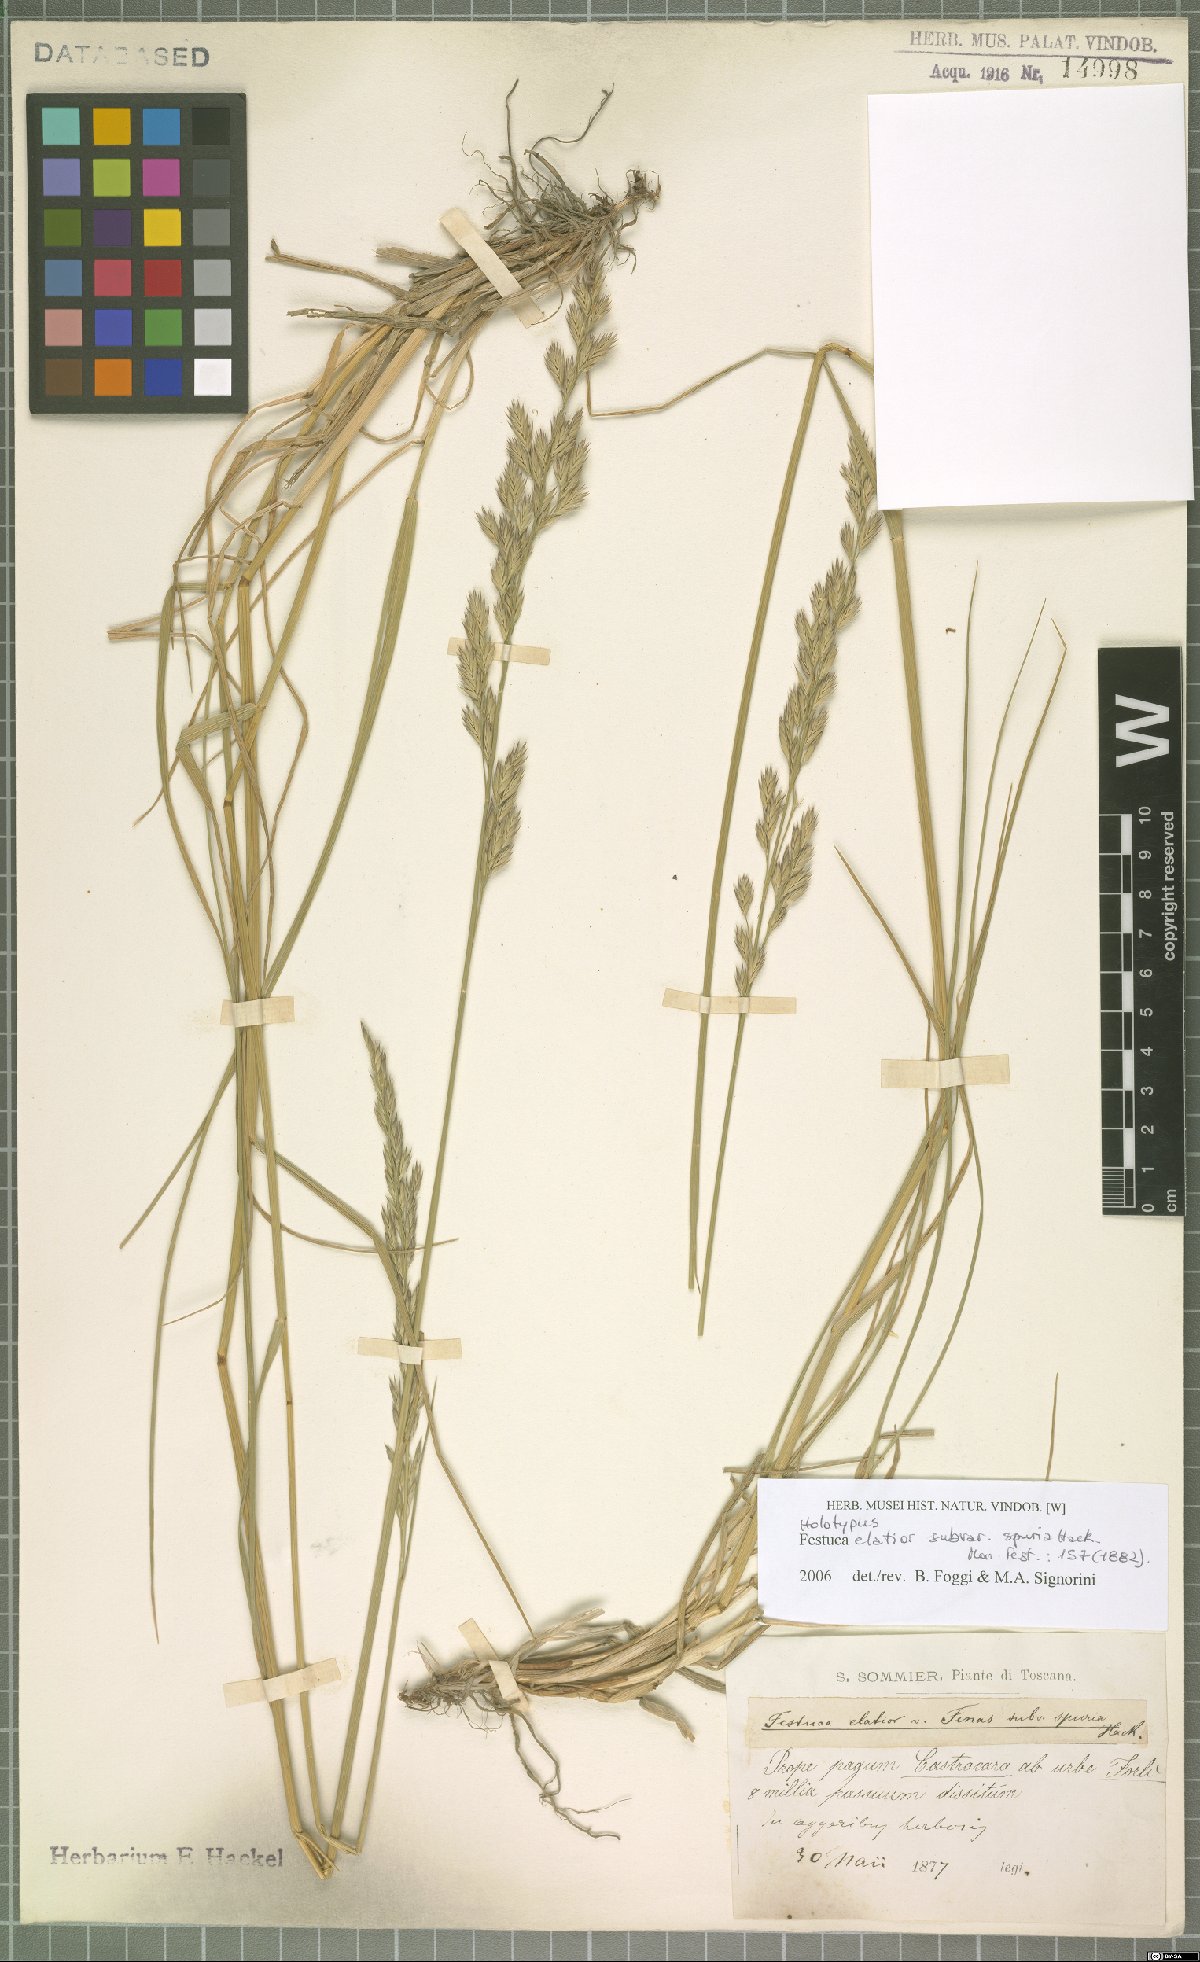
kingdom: Plantae
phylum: Tracheophyta
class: Liliopsida
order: Poales
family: Poaceae
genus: Lolium
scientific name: Lolium arundinaceum
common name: Reed fescue
